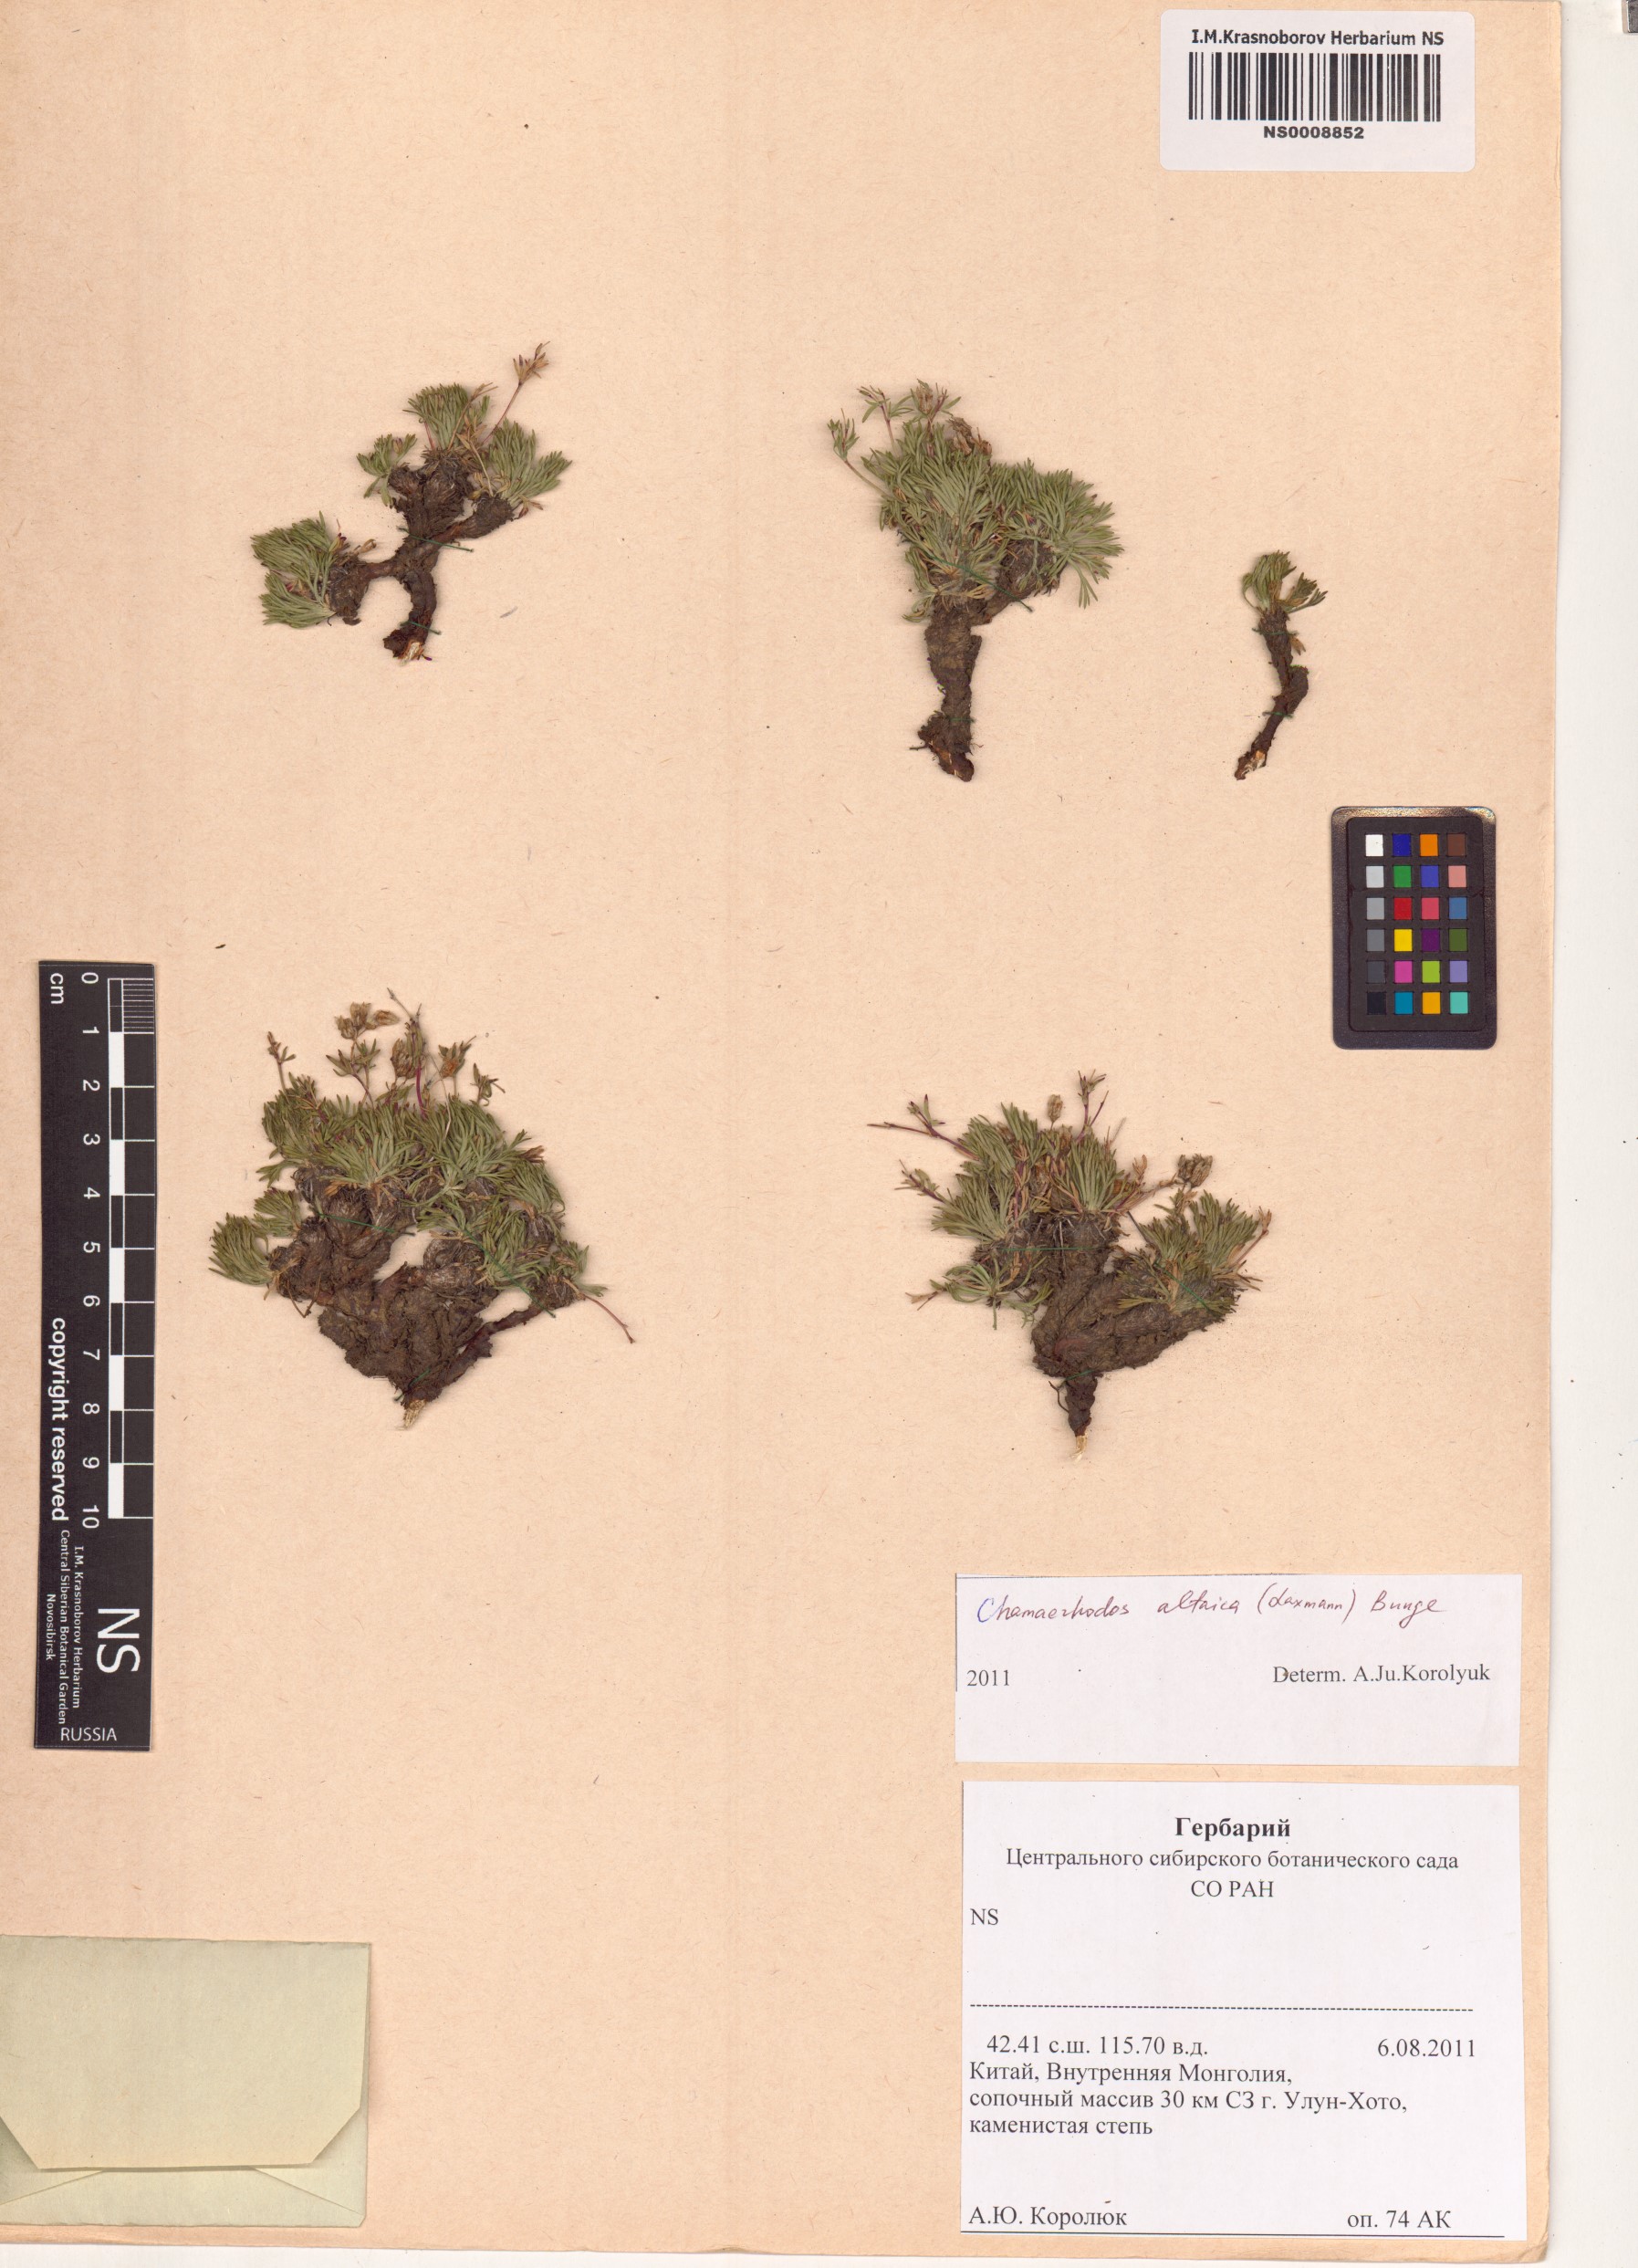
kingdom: Plantae
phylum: Tracheophyta
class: Magnoliopsida
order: Rosales
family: Rosaceae
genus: Chamaerhodos
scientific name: Chamaerhodos altaica
